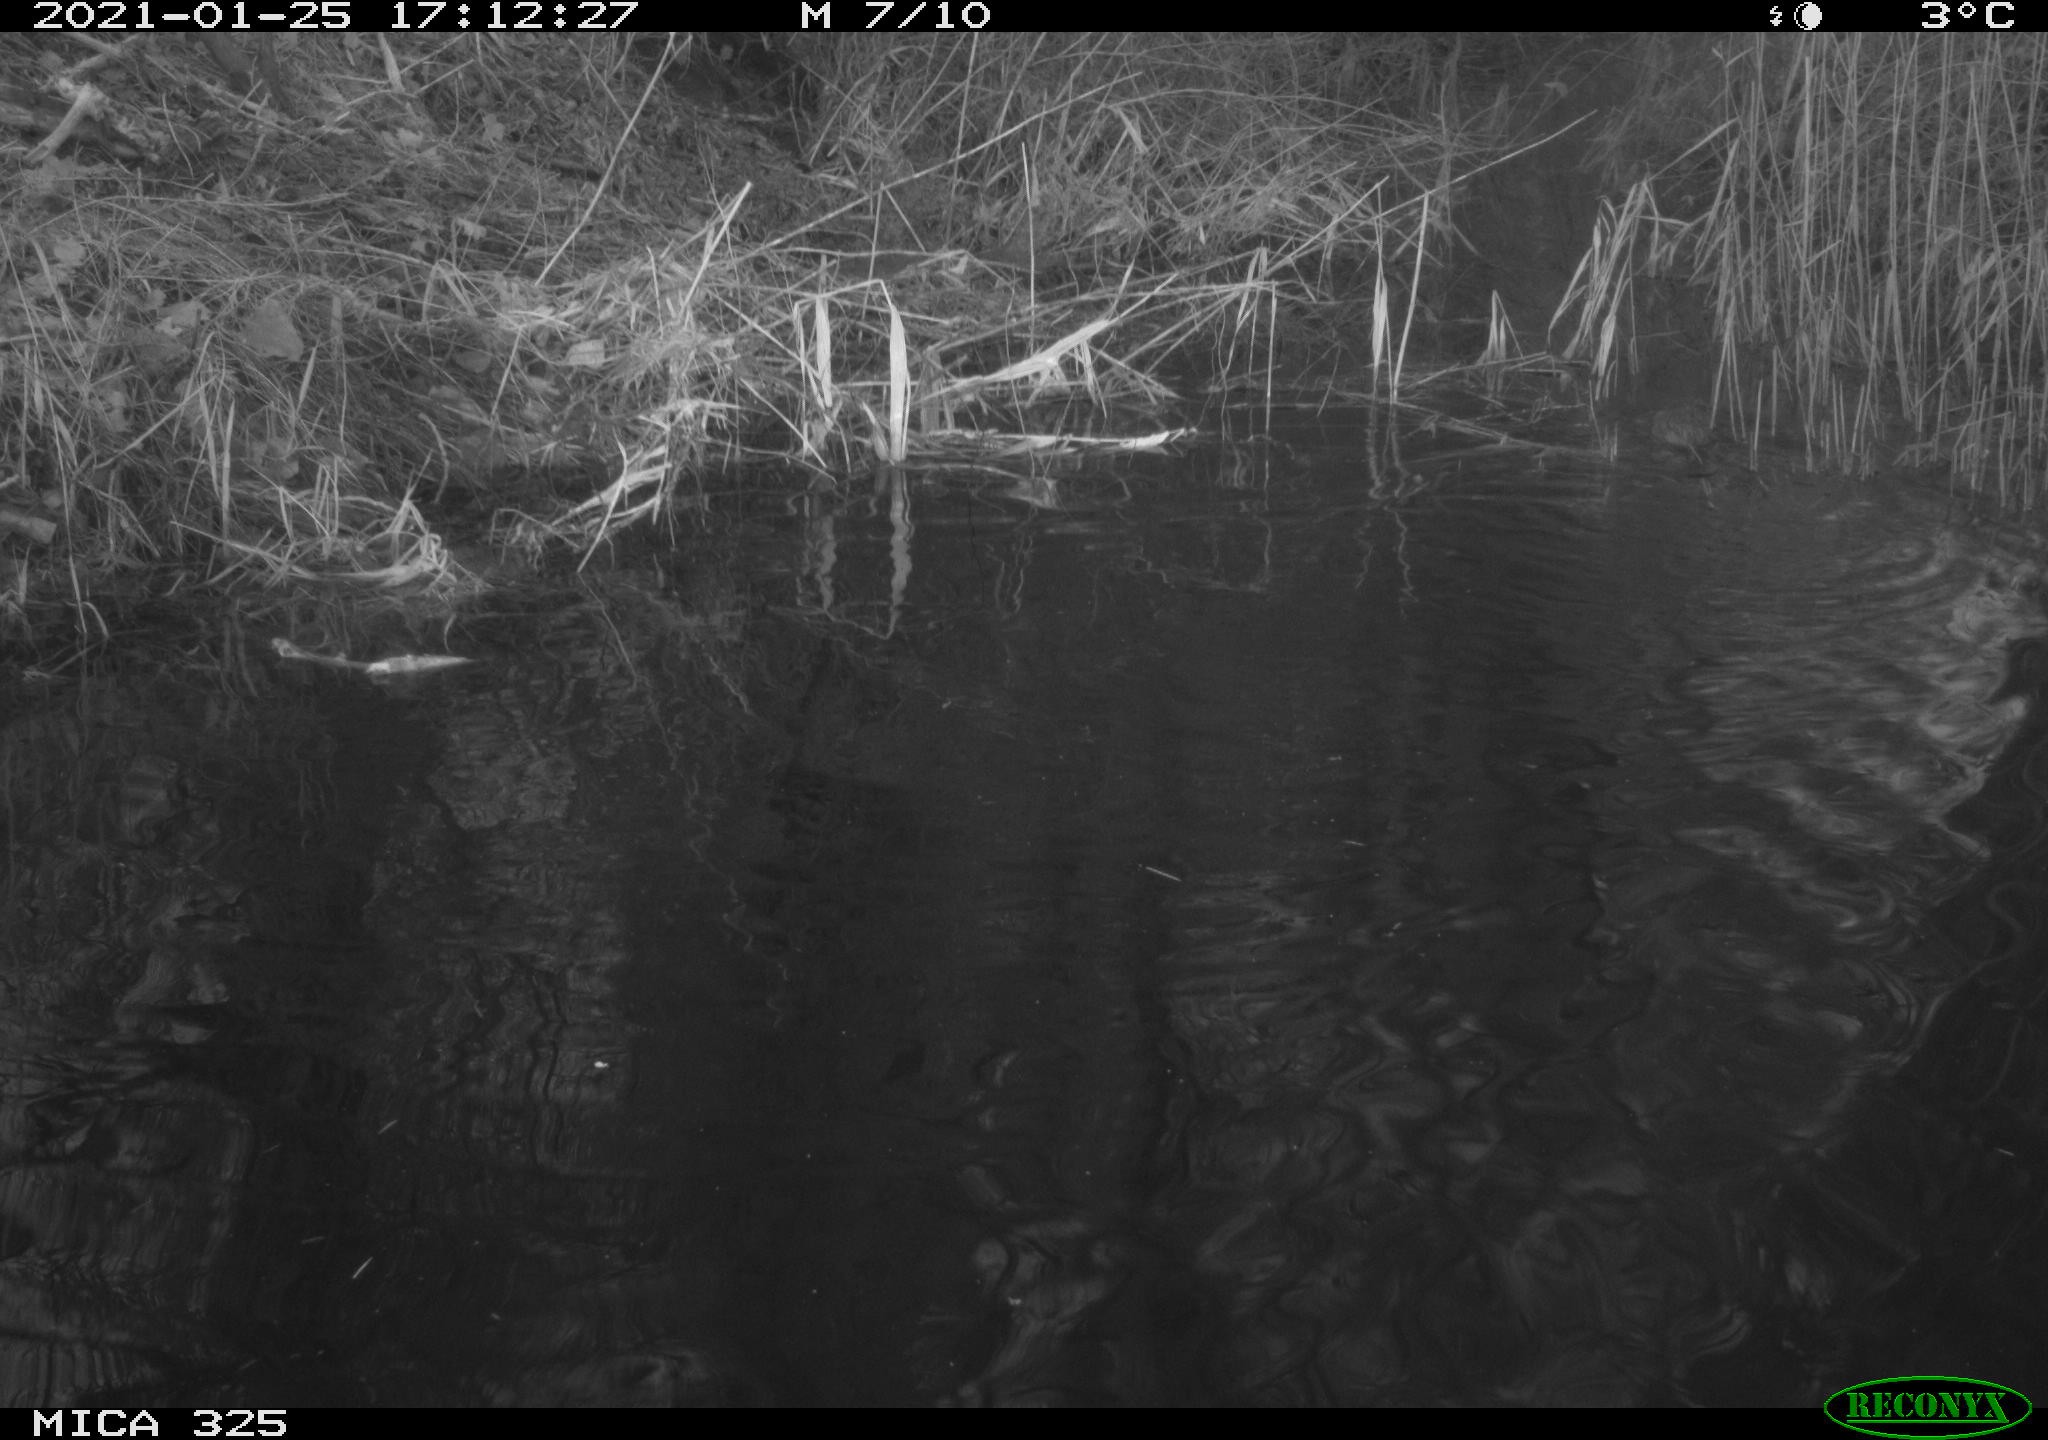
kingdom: Animalia
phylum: Chordata
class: Mammalia
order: Rodentia
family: Cricetidae
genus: Ondatra
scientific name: Ondatra zibethicus
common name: Muskrat
